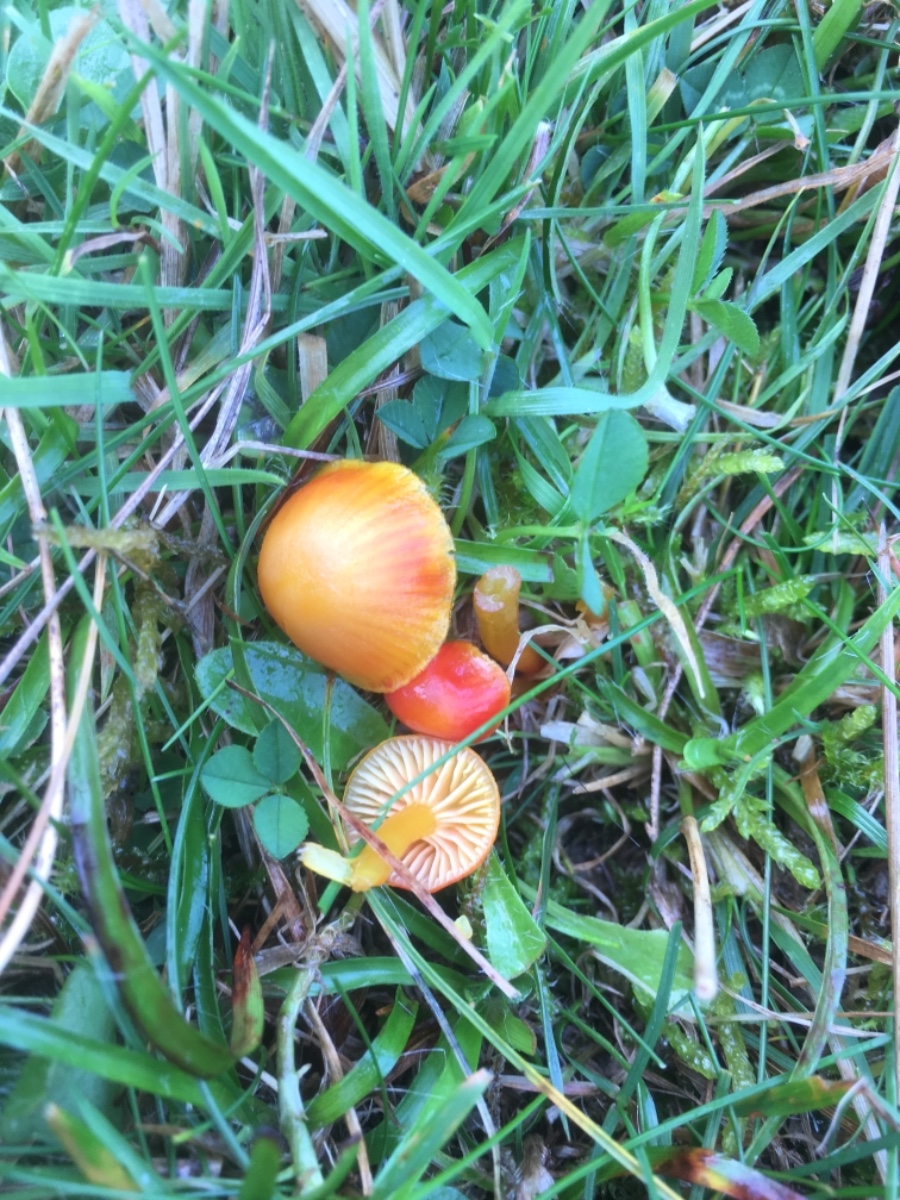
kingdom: Fungi
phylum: Basidiomycota
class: Agaricomycetes
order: Agaricales
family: Hygrophoraceae
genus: Hygrocybe
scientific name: Hygrocybe insipida
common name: liden vokshat
